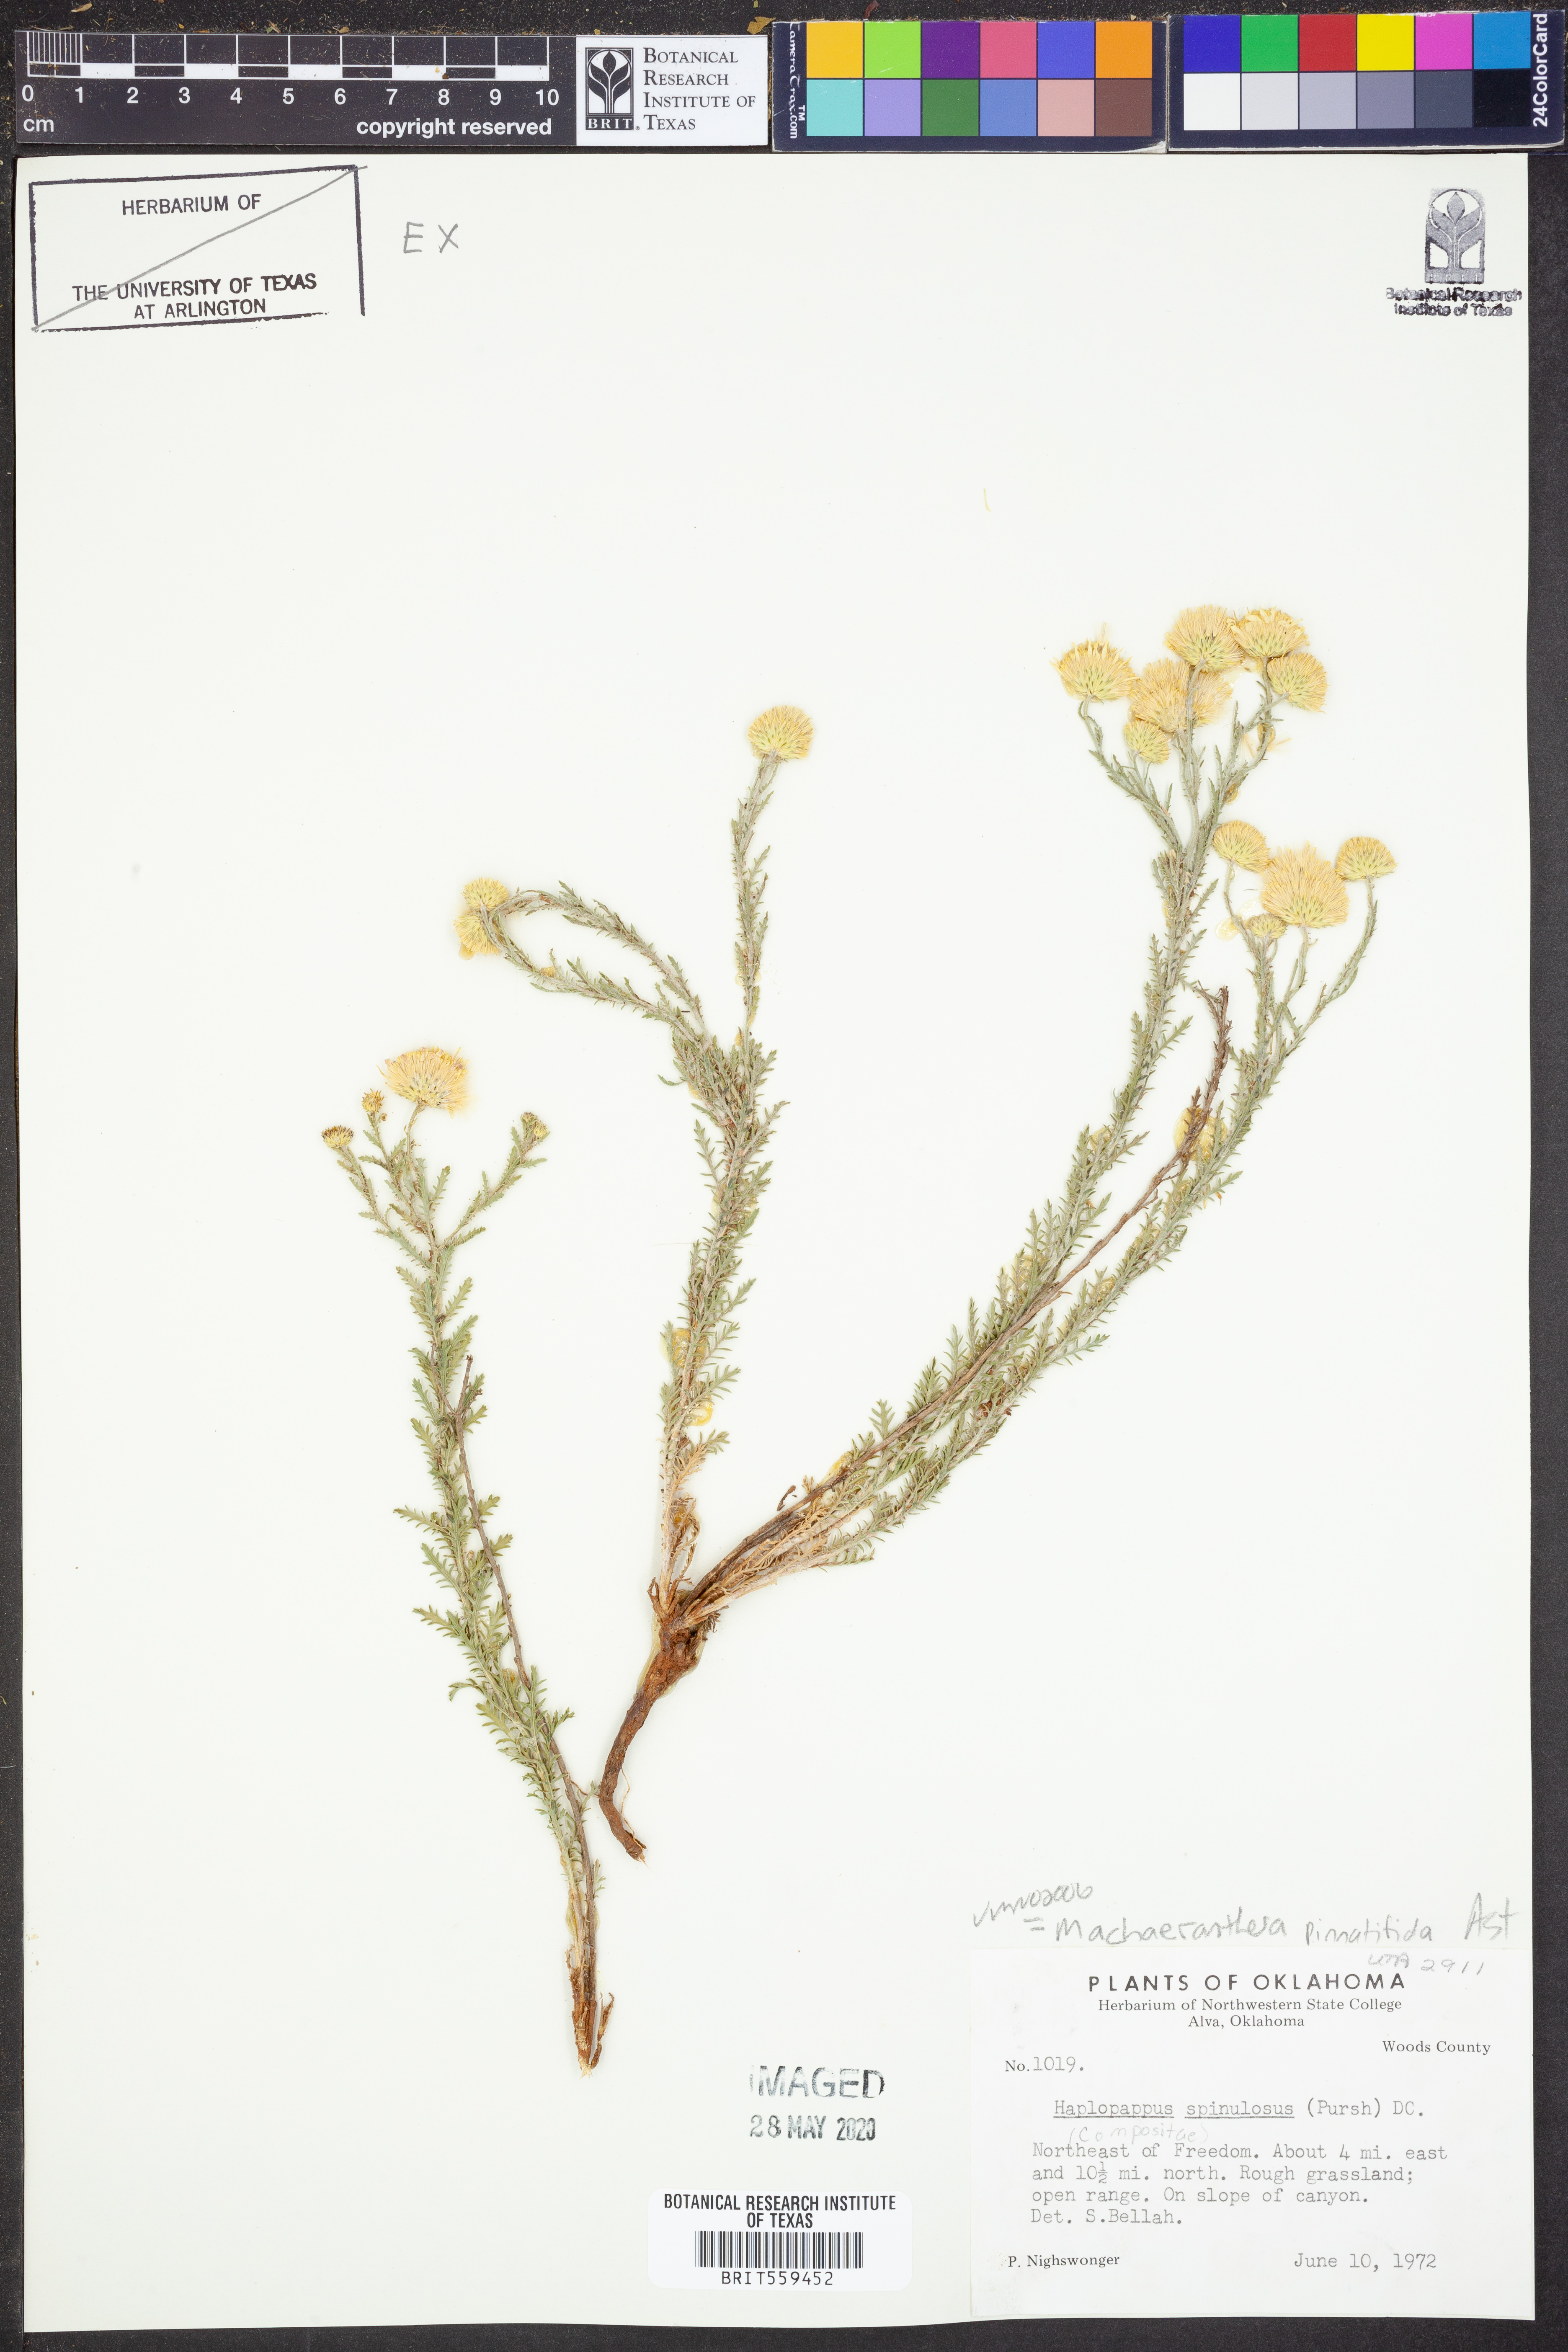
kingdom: Plantae
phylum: Tracheophyta
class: Magnoliopsida
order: Asterales
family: Asteraceae
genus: Xanthisma
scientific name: Xanthisma spinulosum
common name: Spiny goldenweed
